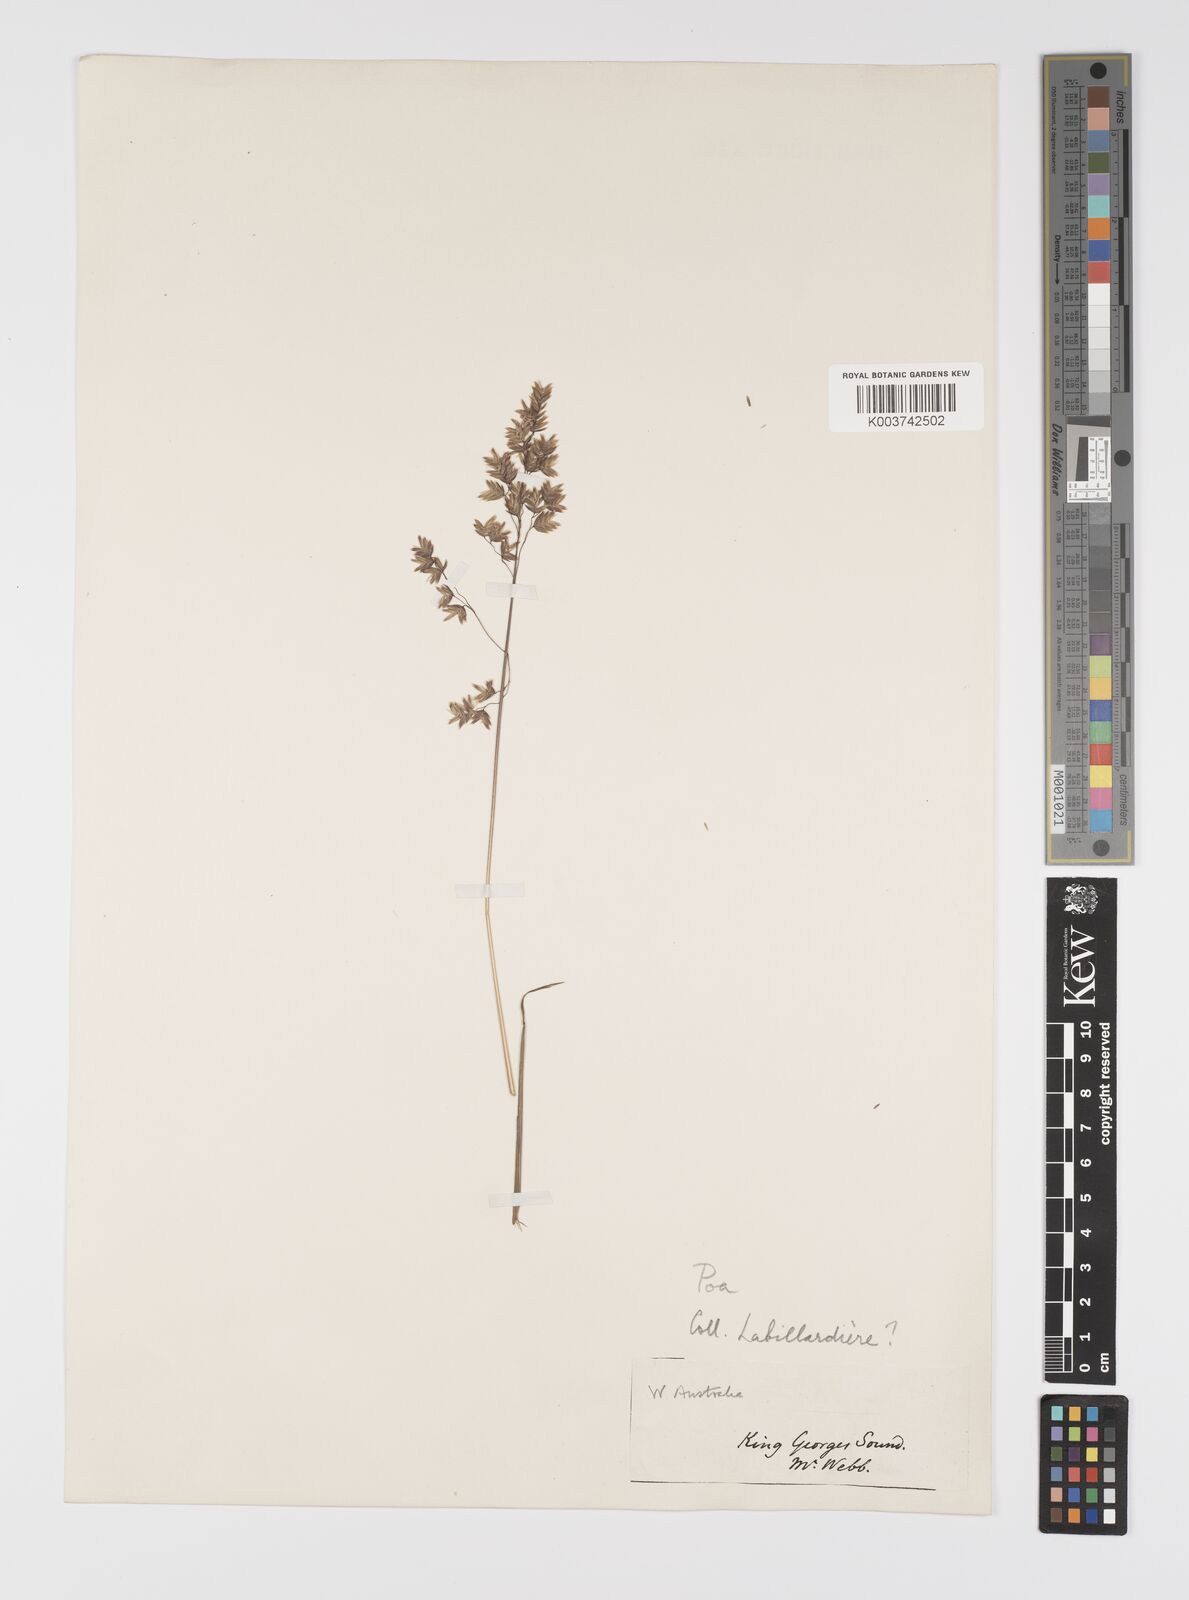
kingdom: Plantae
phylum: Tracheophyta
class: Liliopsida
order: Poales
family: Poaceae
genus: Poa
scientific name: Poa
